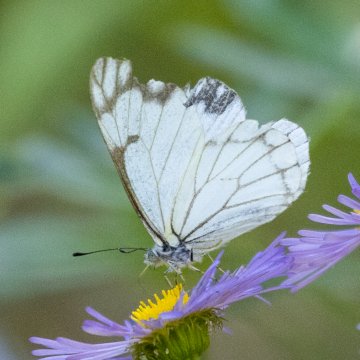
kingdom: Animalia
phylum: Arthropoda
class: Insecta
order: Lepidoptera
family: Pieridae
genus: Neophasia
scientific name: Neophasia menapia
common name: Pine White
